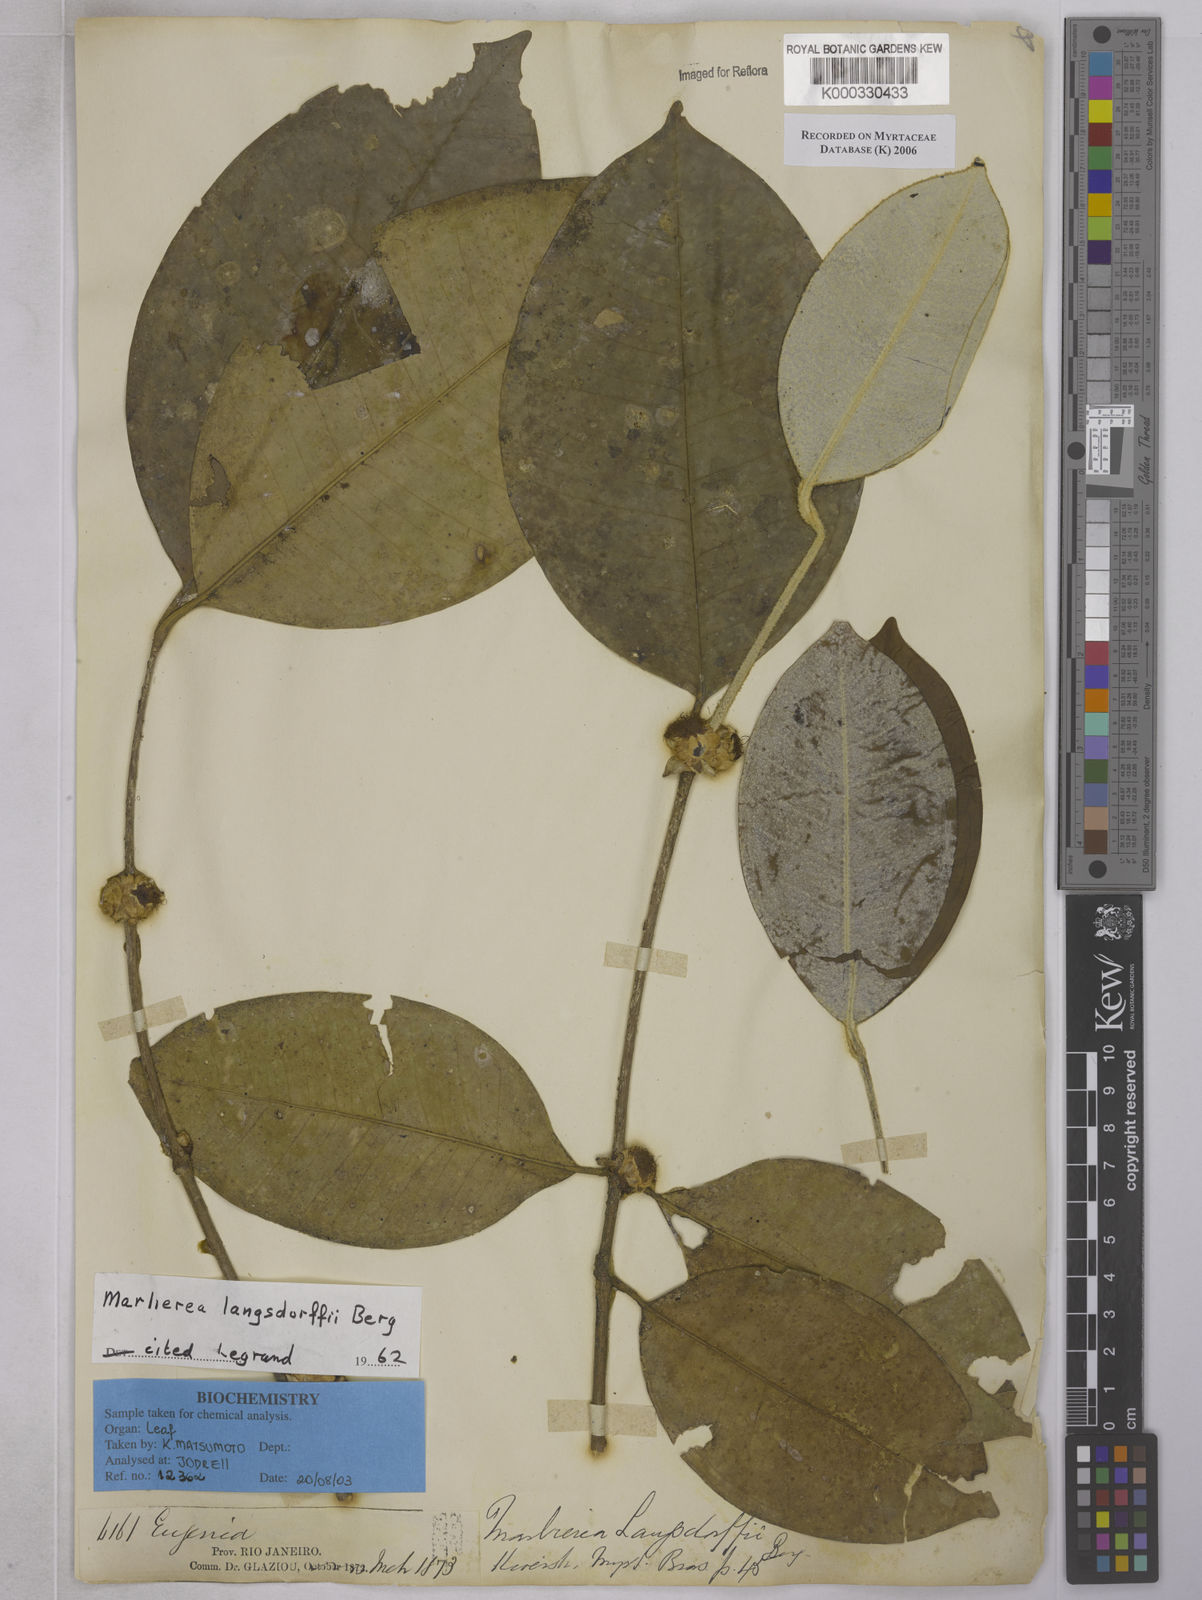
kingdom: Plantae
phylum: Tracheophyta
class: Magnoliopsida
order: Myrtales
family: Myrtaceae
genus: Plinia
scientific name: Plinia langsdorffii
